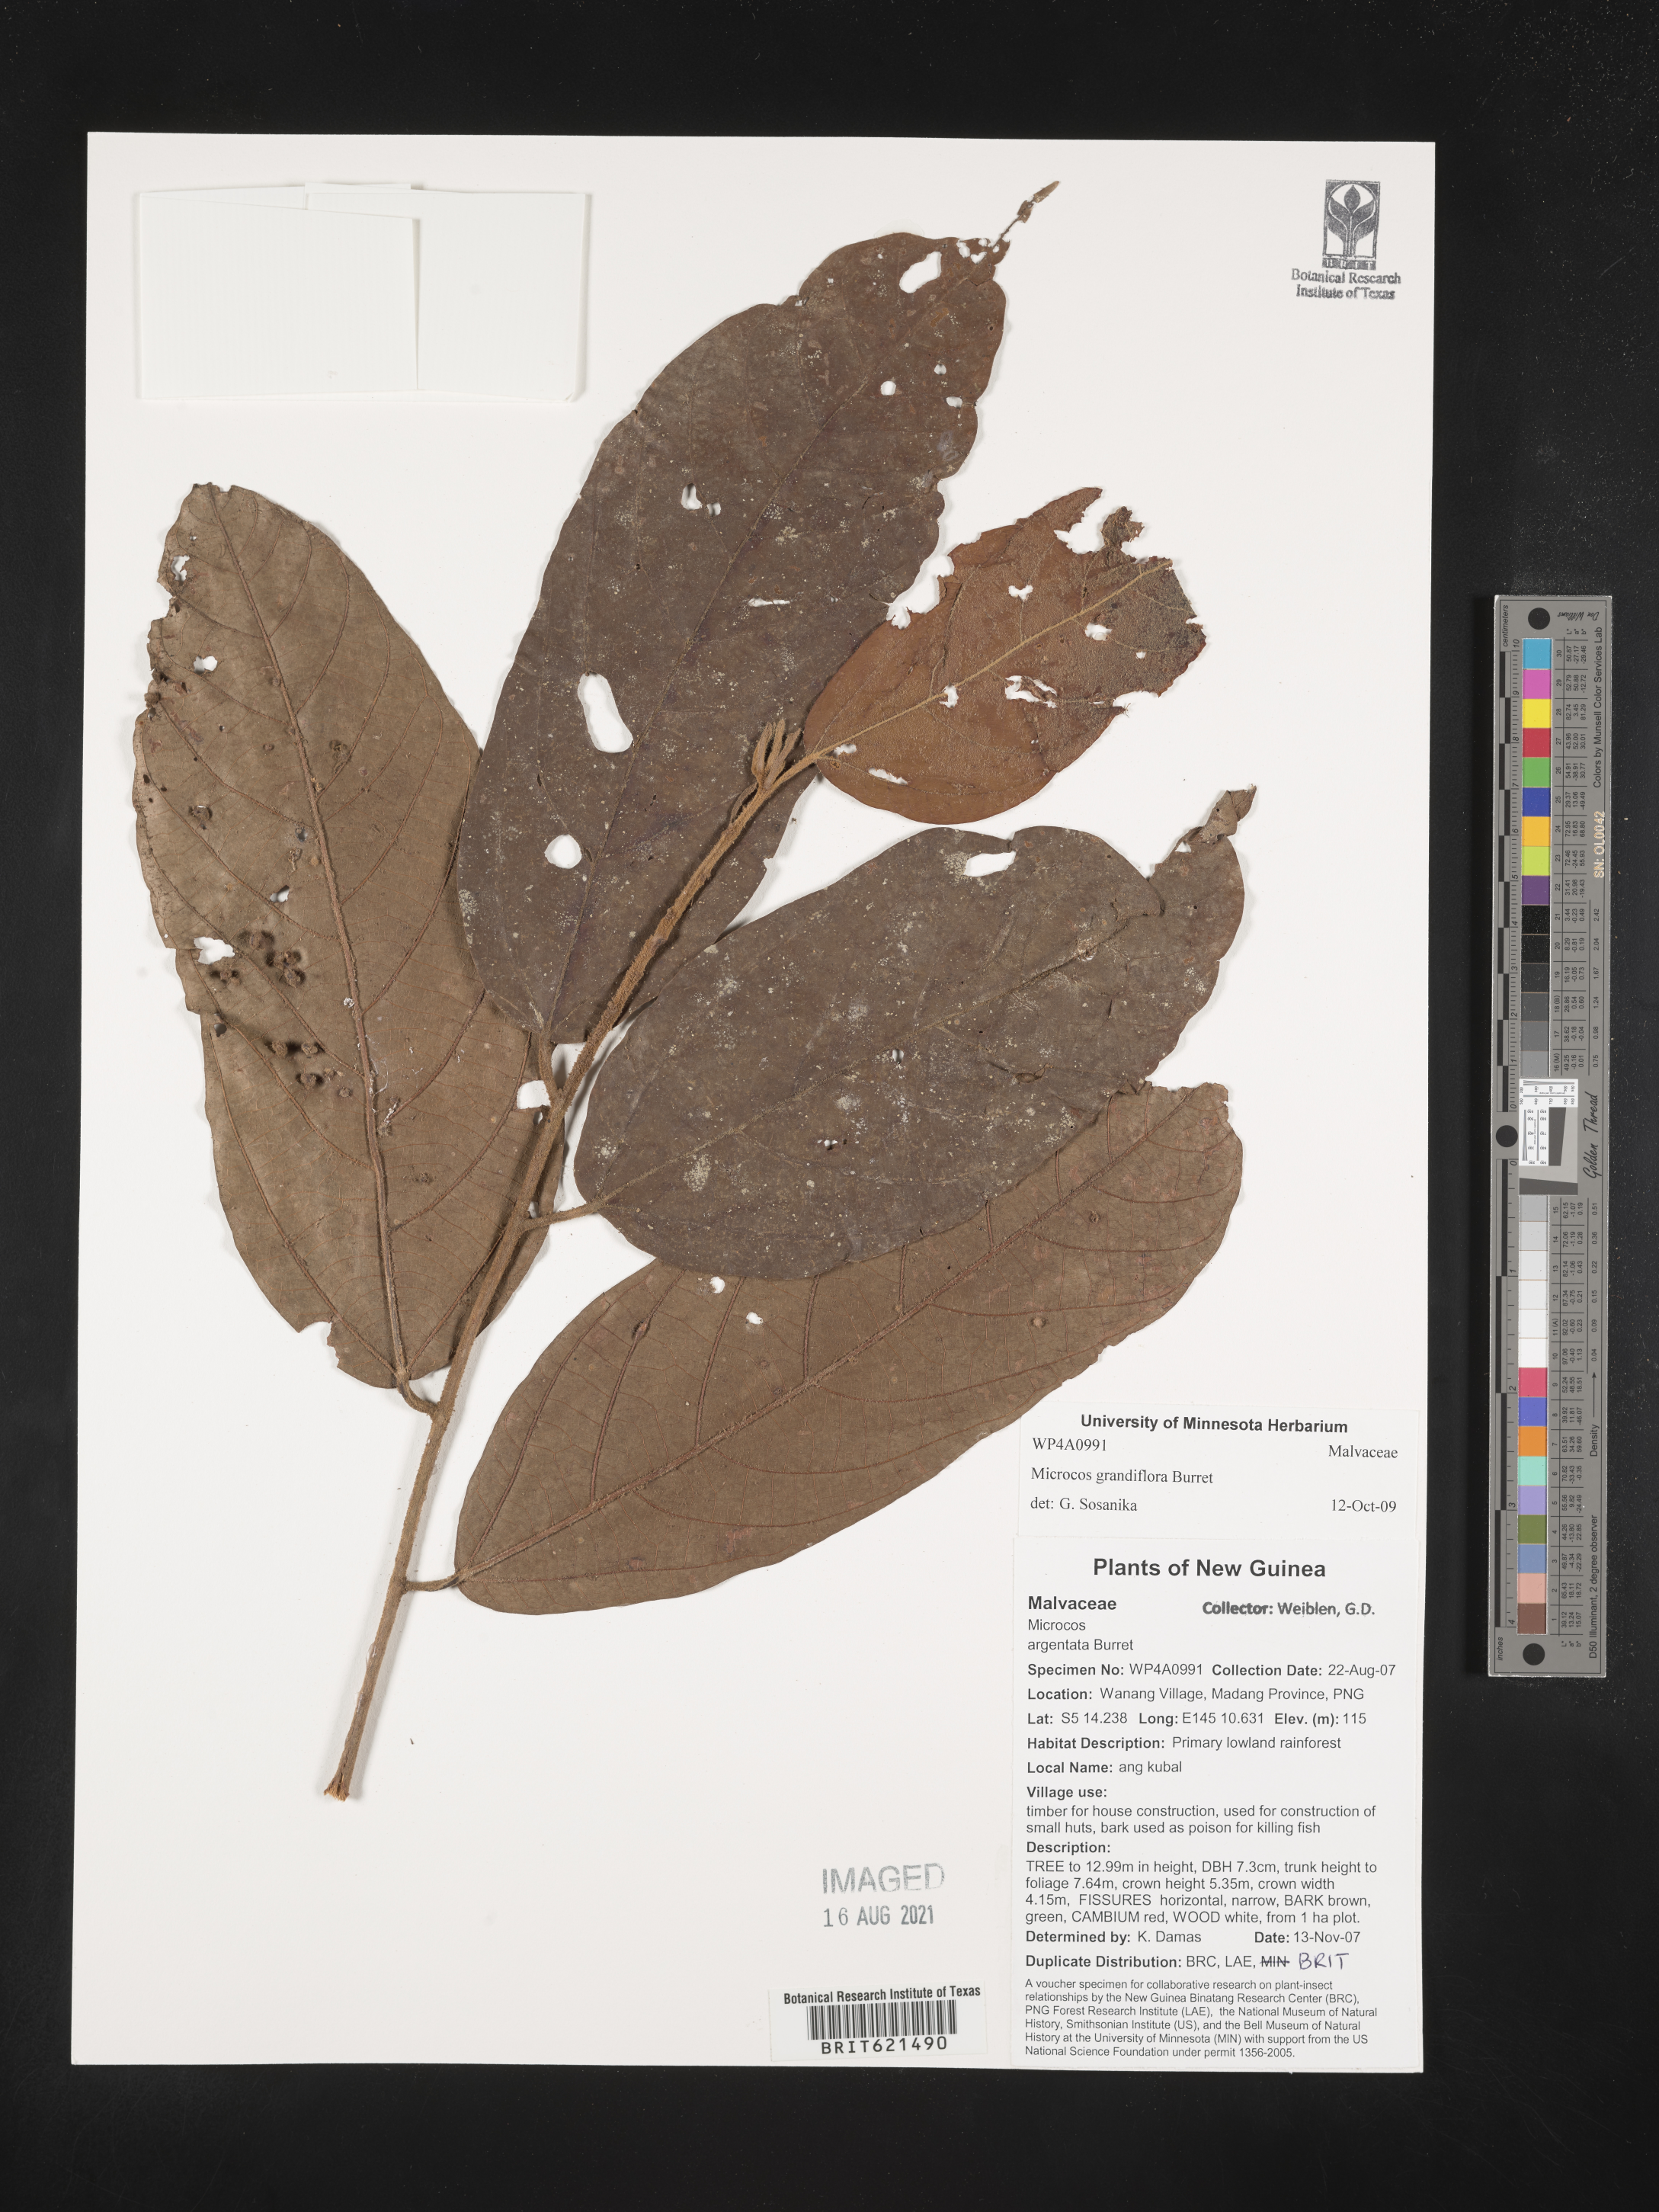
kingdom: Plantae
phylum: Tracheophyta
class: Magnoliopsida
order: Malvales
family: Malvaceae
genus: Microcos
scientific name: Microcos grandiflora
